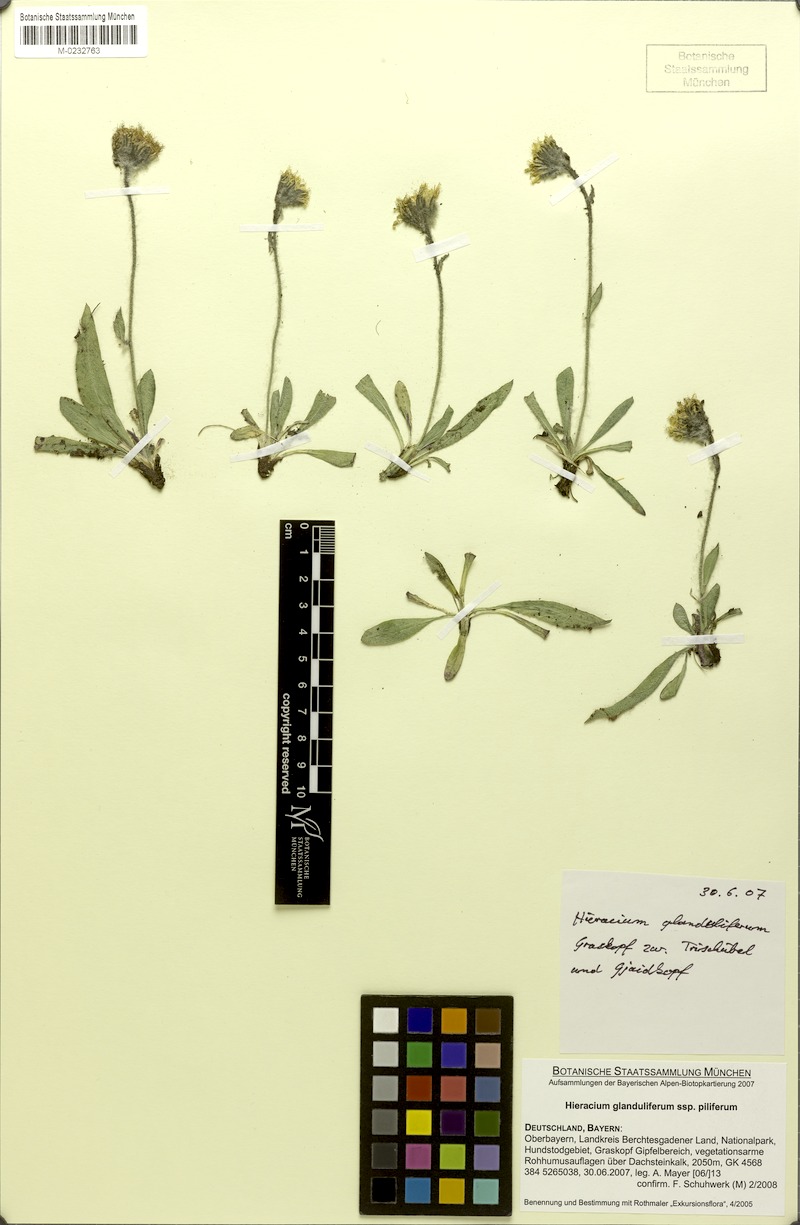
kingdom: Plantae
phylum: Tracheophyta
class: Magnoliopsida
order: Asterales
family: Asteraceae
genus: Hieracium
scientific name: Hieracium piliferum
